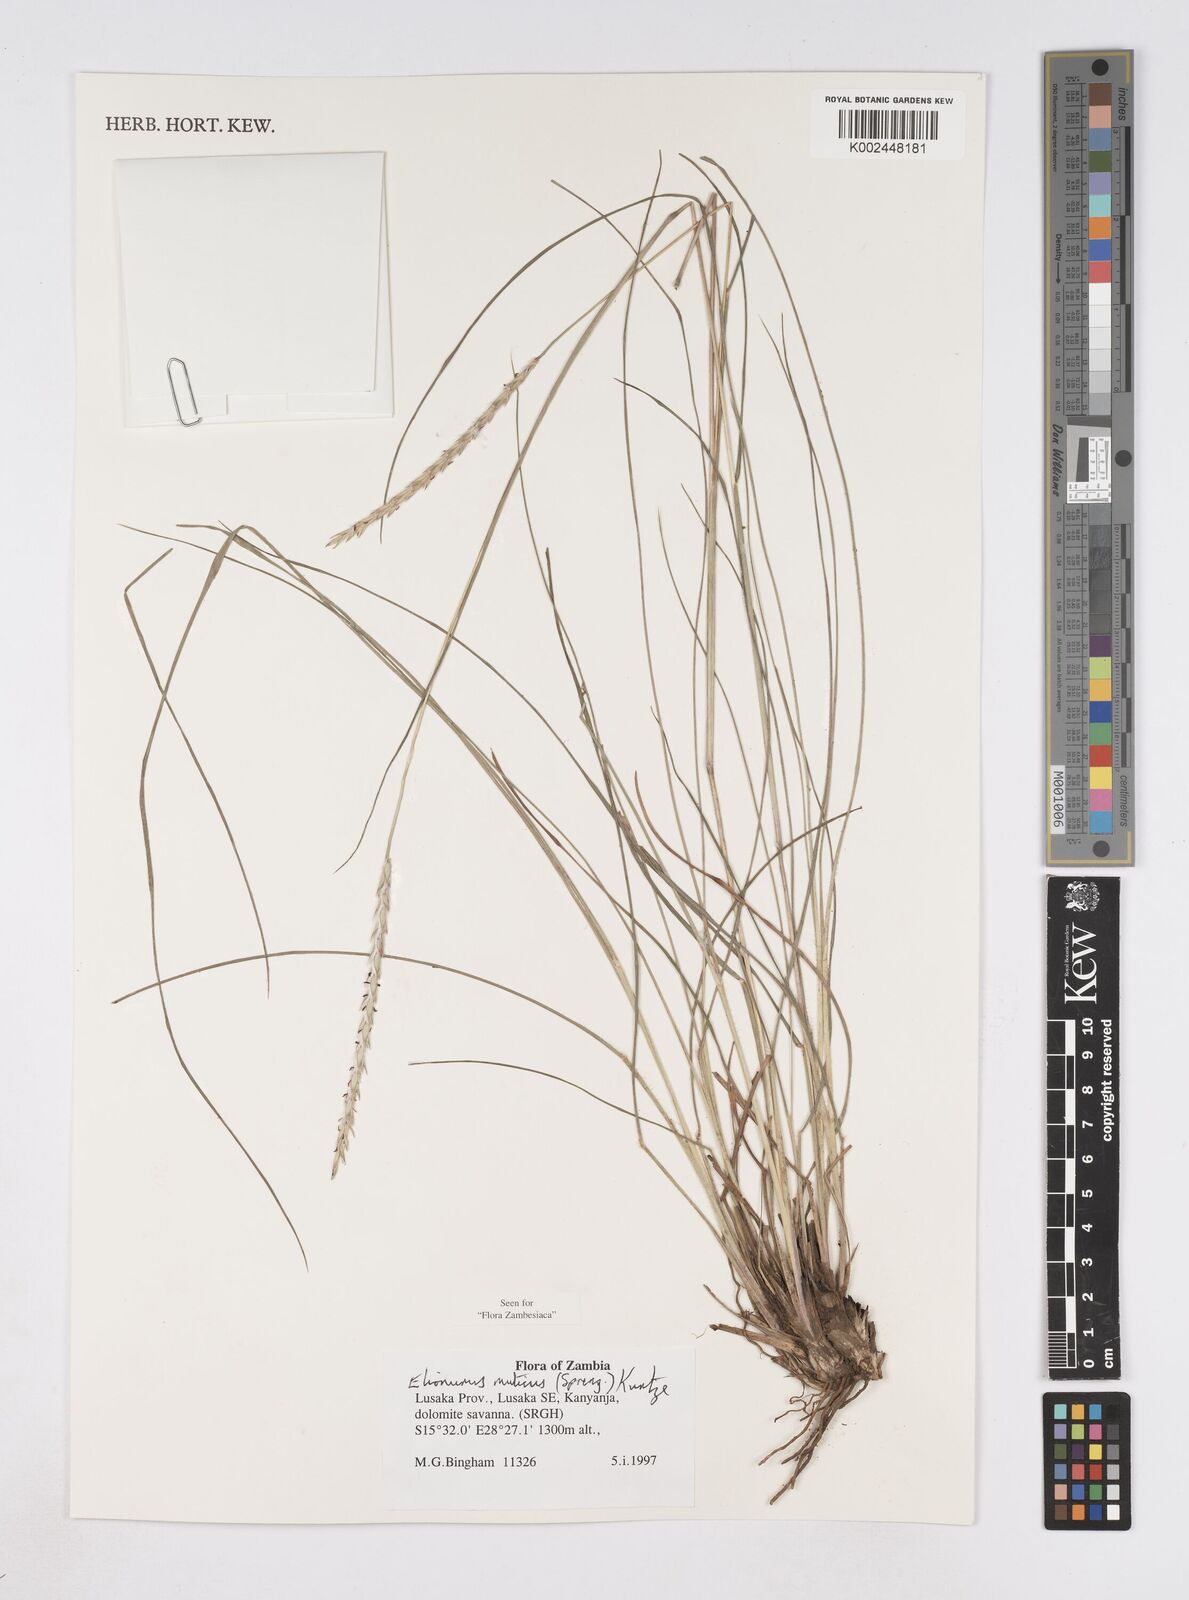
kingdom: Plantae
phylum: Tracheophyta
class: Liliopsida
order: Poales
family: Poaceae
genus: Elionurus
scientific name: Elionurus muticus
